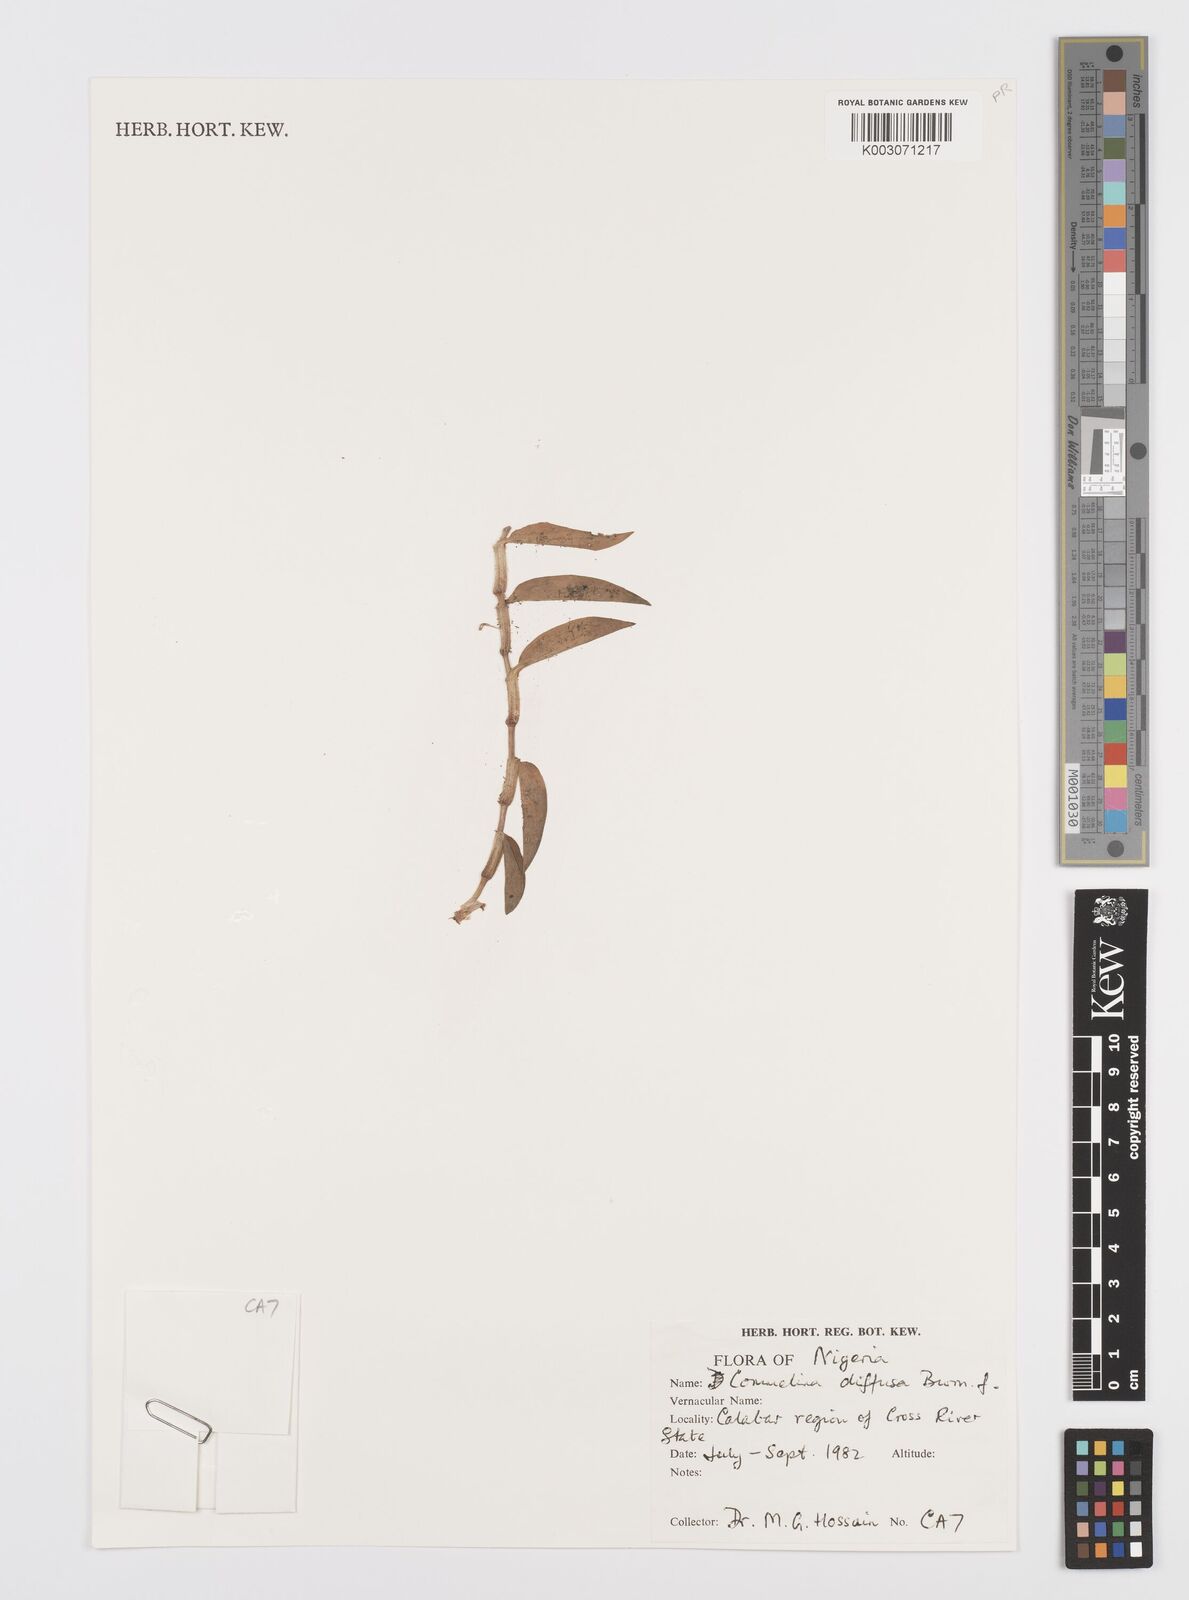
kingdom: Plantae
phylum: Tracheophyta
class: Liliopsida
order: Commelinales
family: Commelinaceae
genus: Commelina
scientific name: Commelina diffusa
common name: Climbing dayflower
